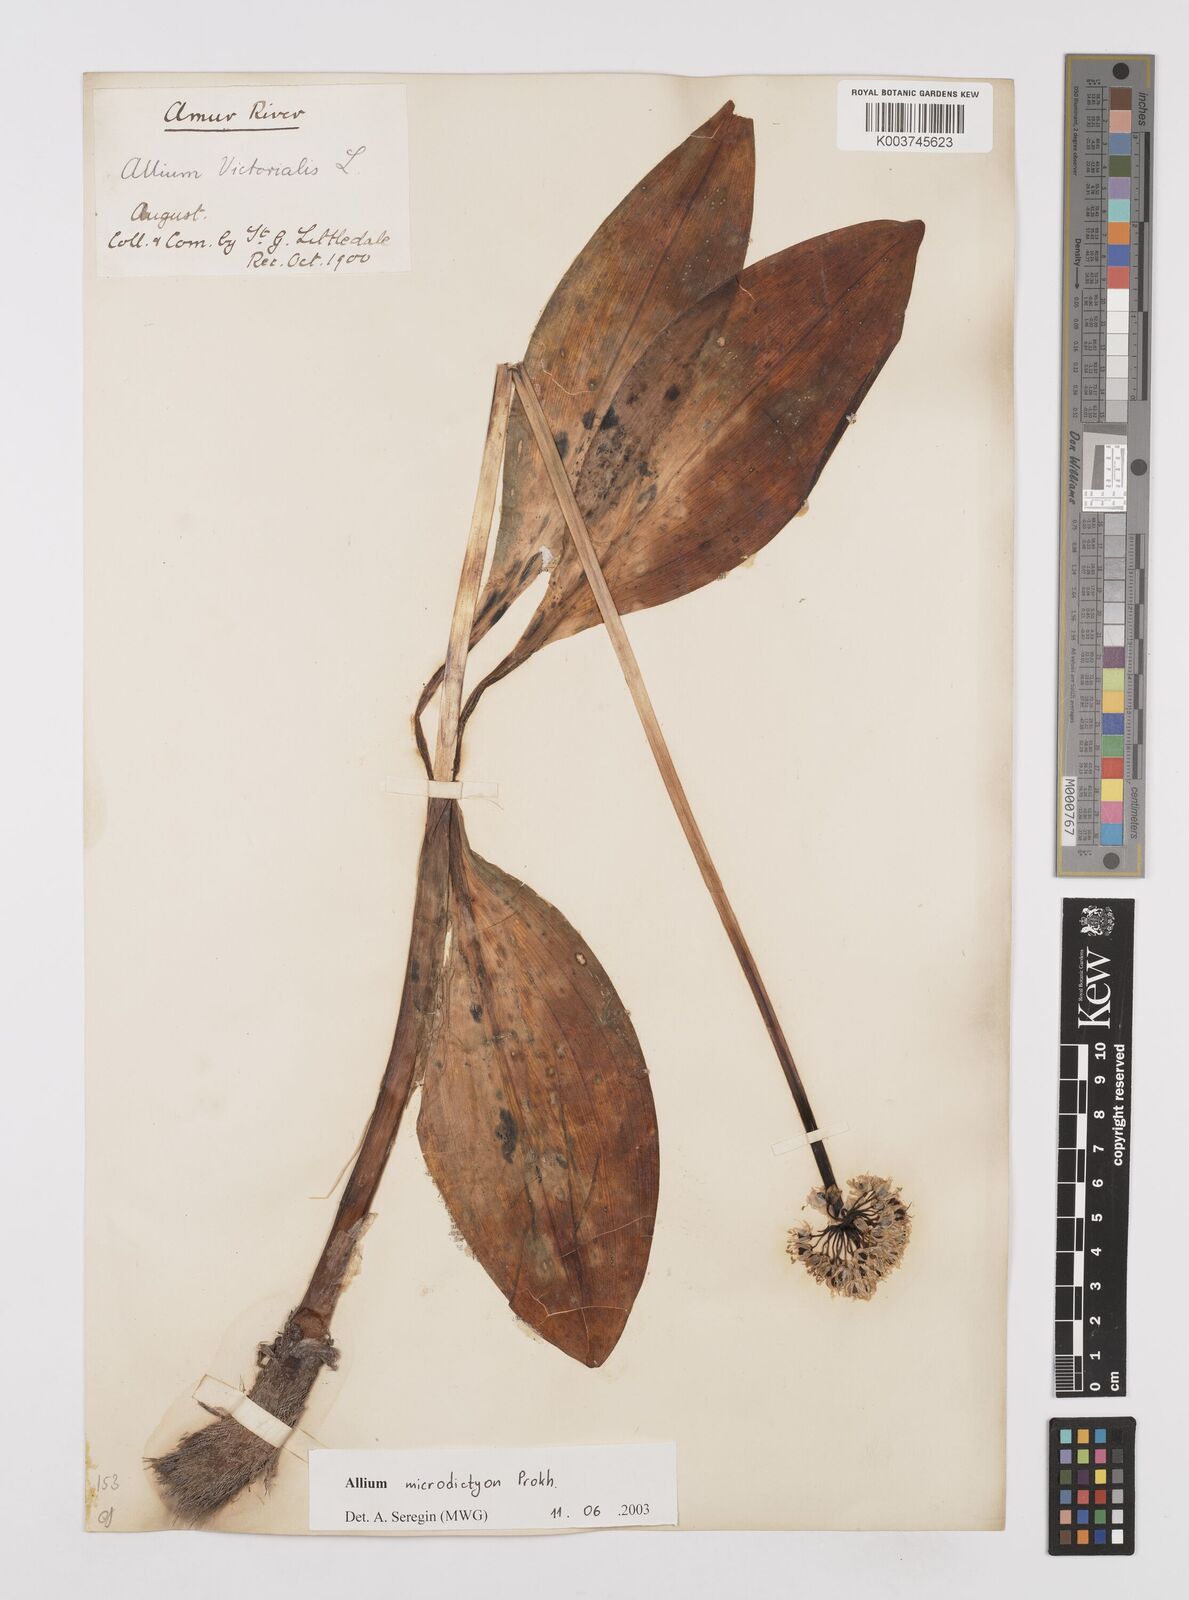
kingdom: Plantae
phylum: Tracheophyta
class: Liliopsida
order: Asparagales
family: Amaryllidaceae
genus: Allium
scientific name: Allium victorialis
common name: Alpine leek
